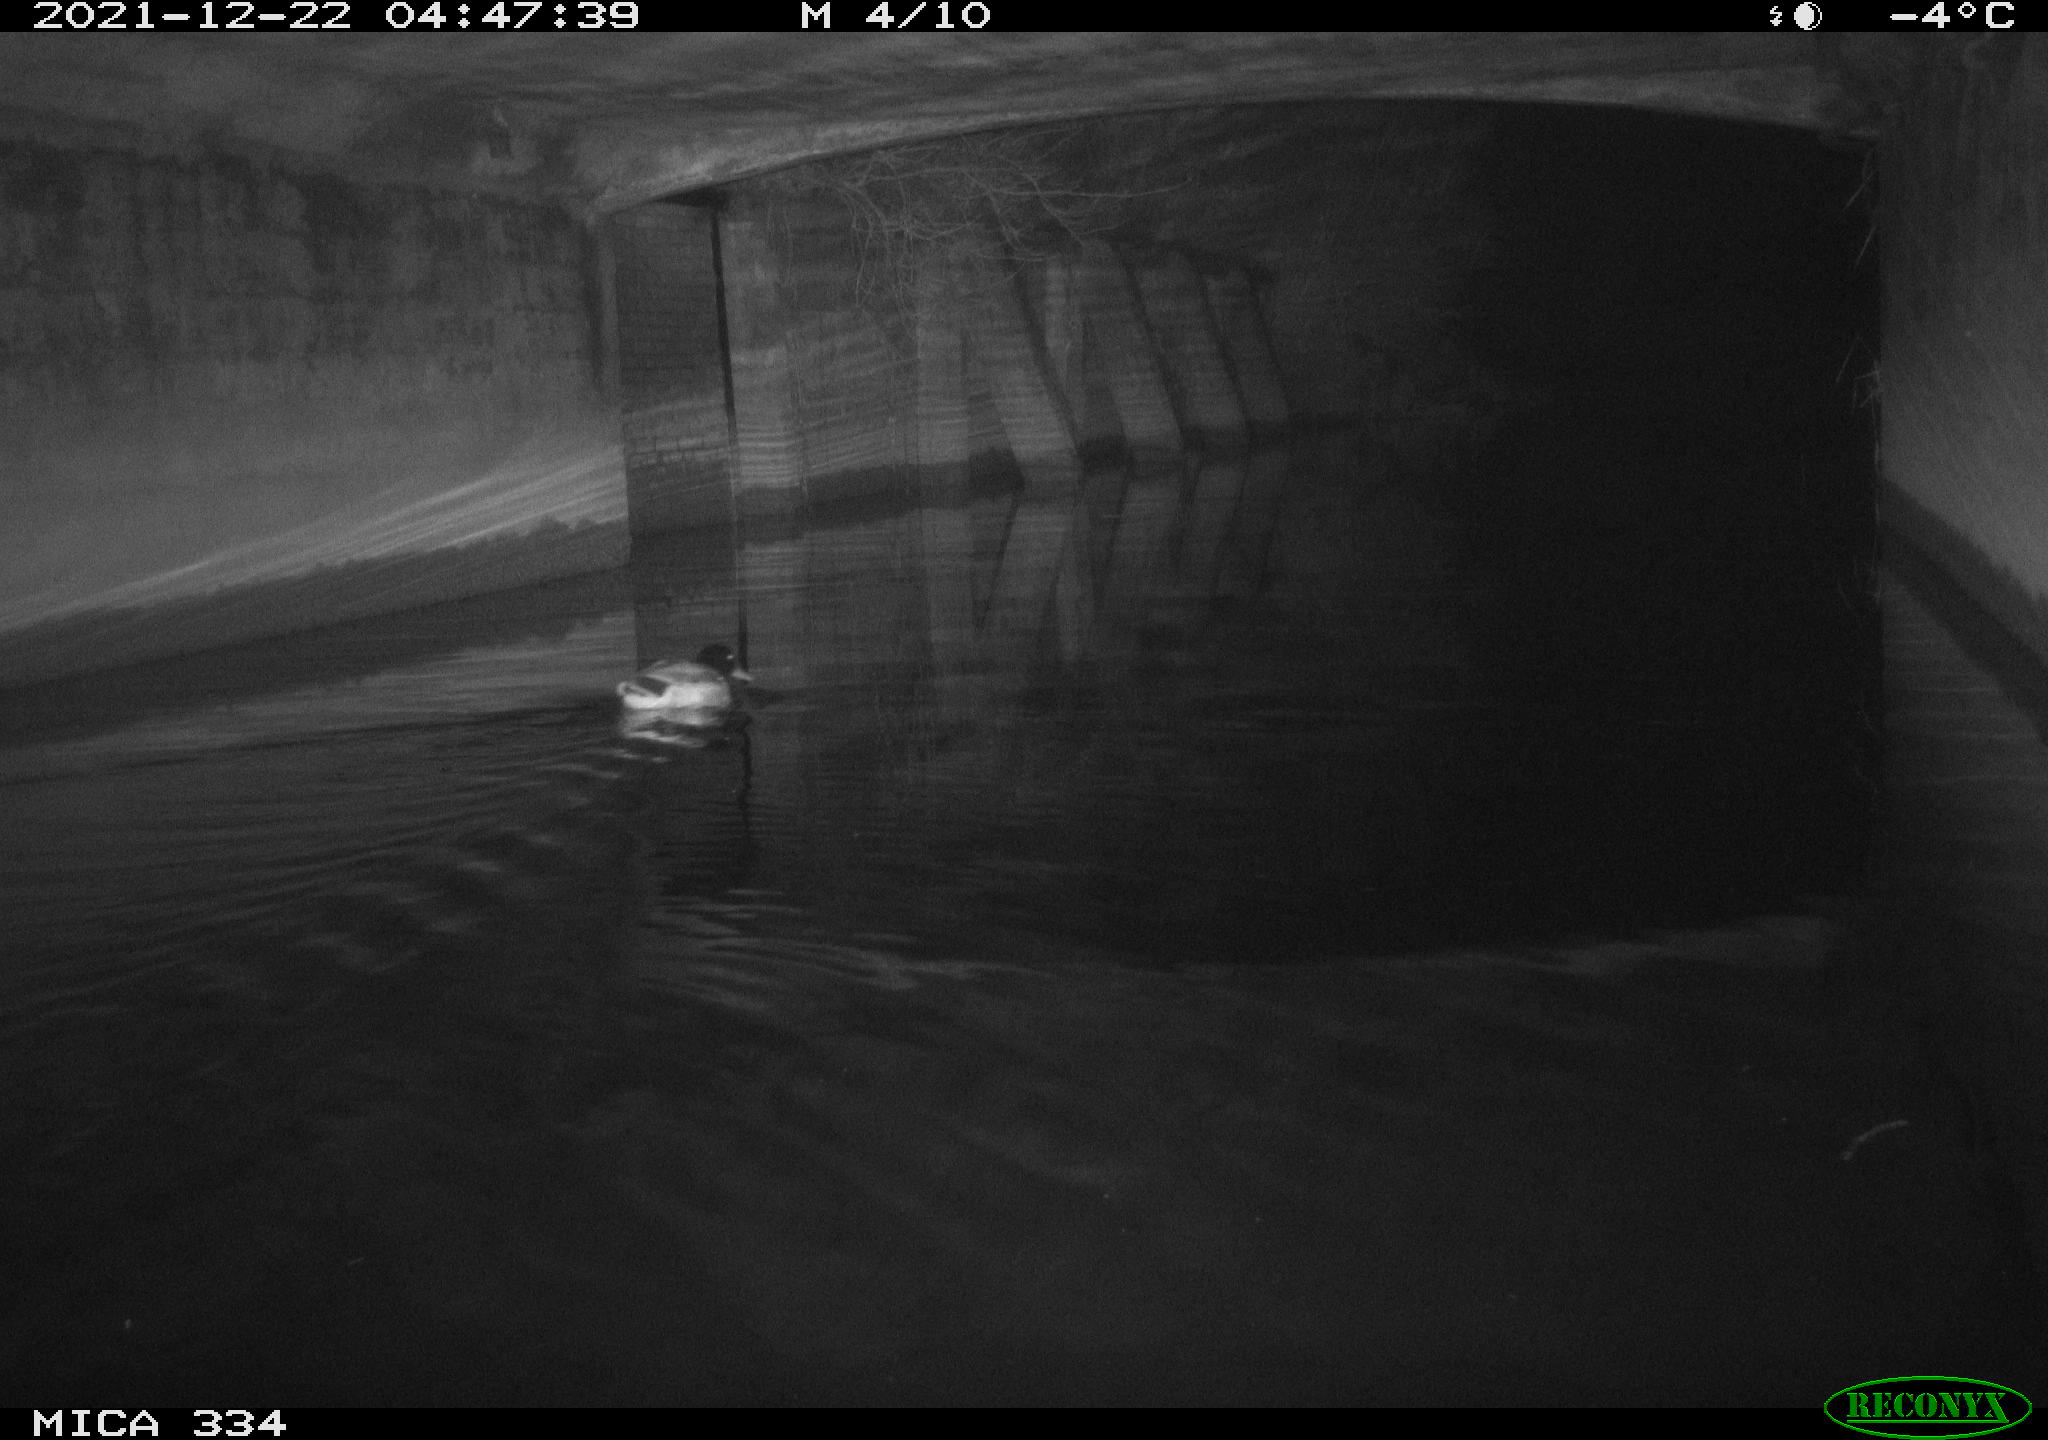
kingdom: Animalia
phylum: Chordata
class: Aves
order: Anseriformes
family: Anatidae
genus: Anas
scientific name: Anas platyrhynchos
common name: Mallard
